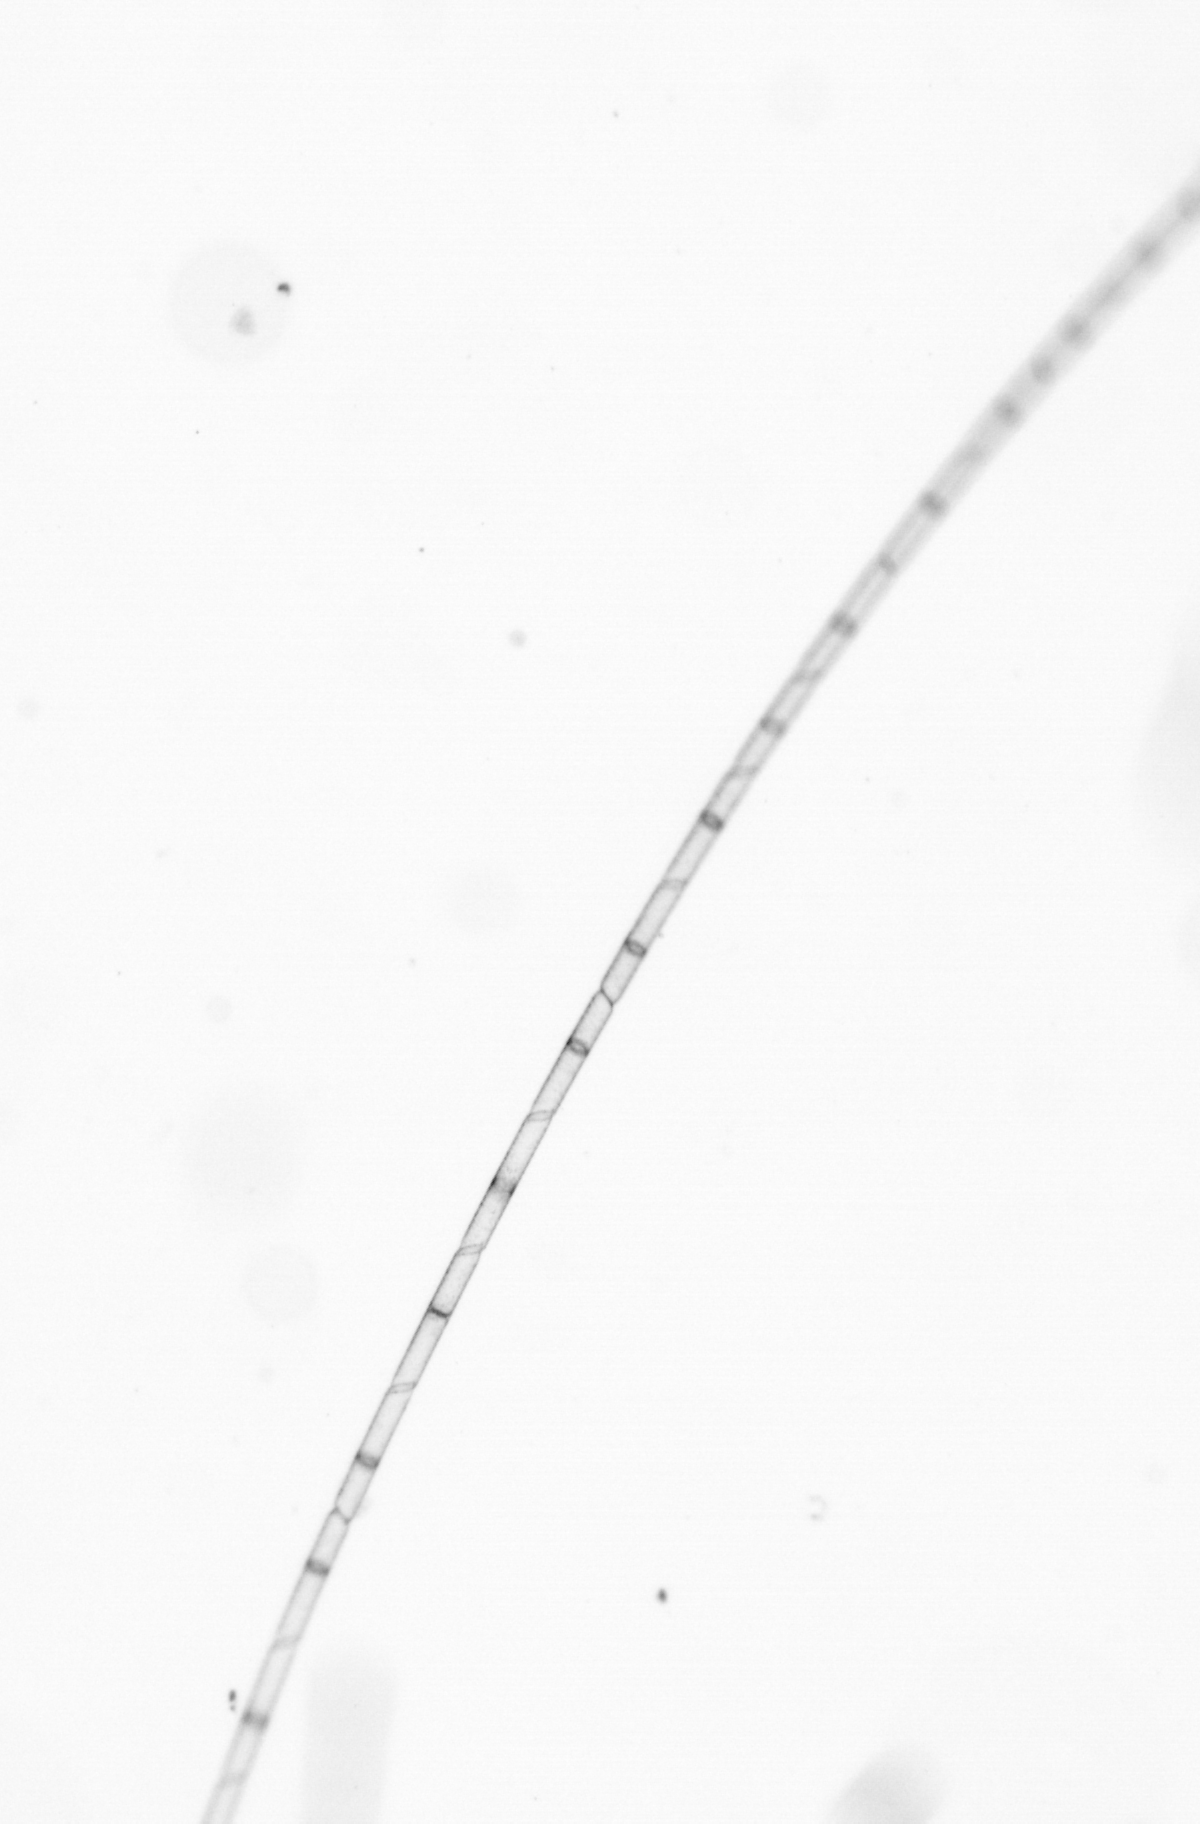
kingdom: Chromista
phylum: Ochrophyta
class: Bacillariophyceae
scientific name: Bacillariophyceae
